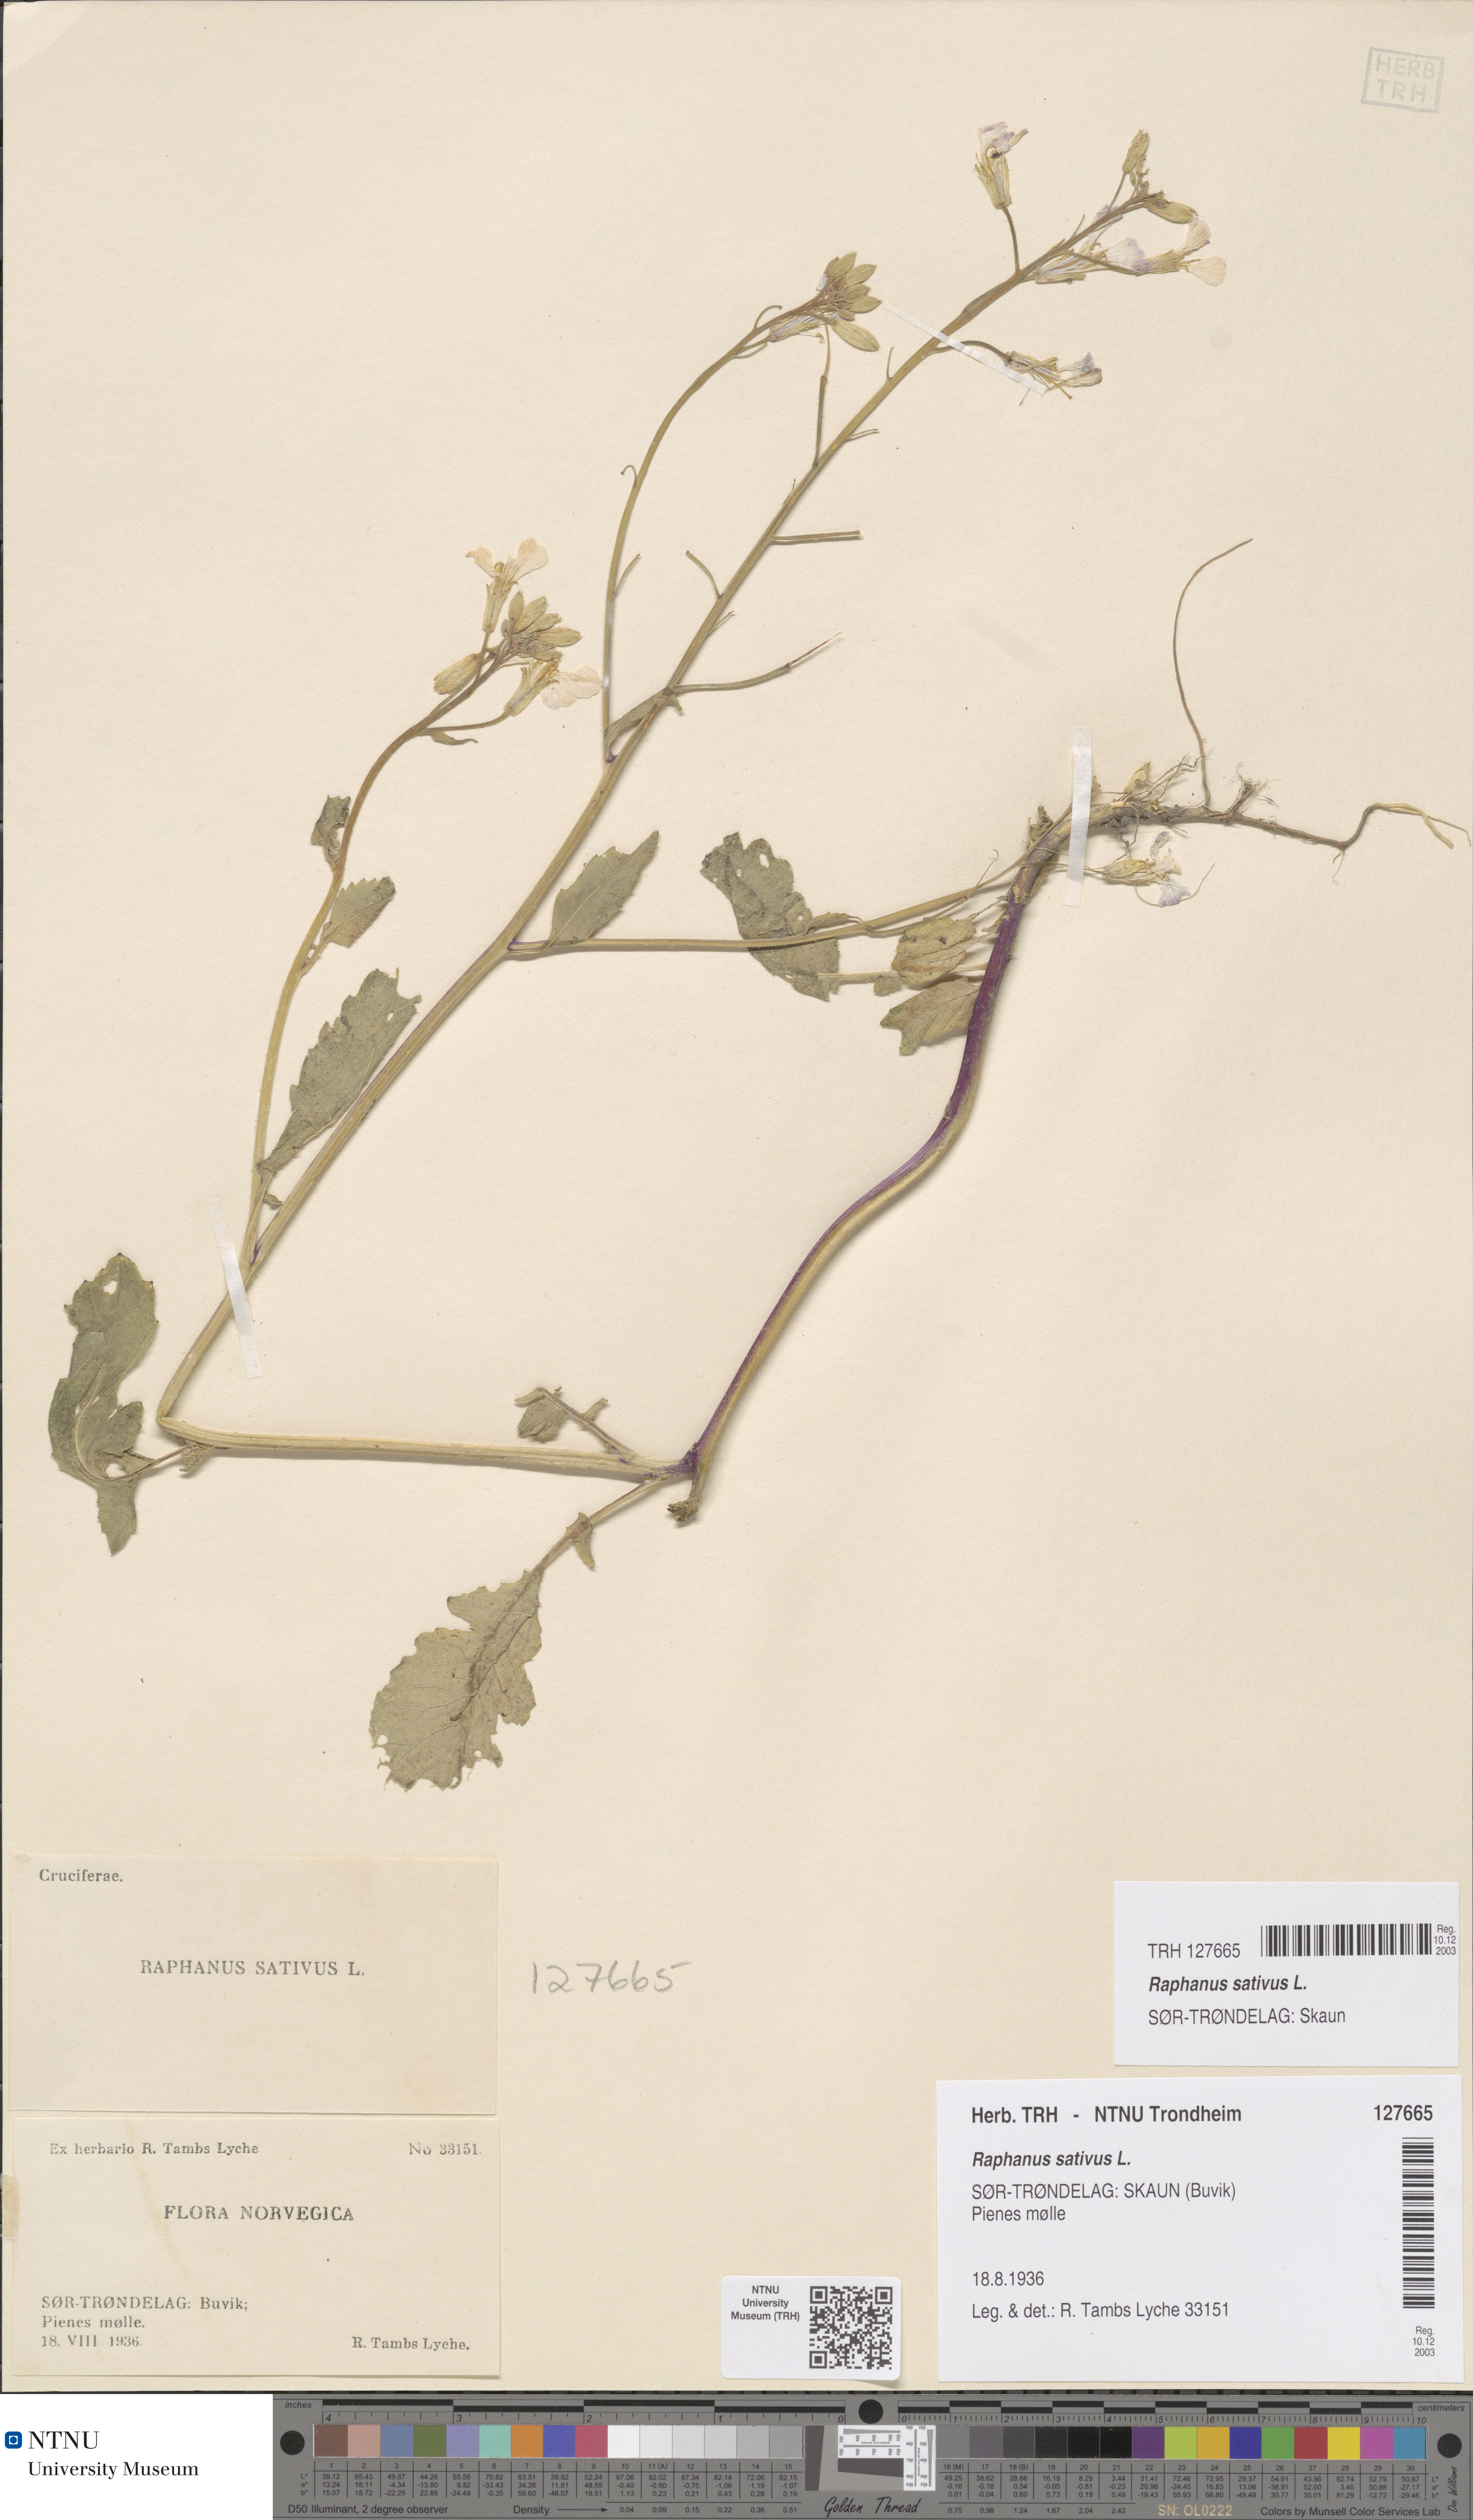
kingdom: Plantae
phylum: Tracheophyta
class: Magnoliopsida
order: Brassicales
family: Brassicaceae
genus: Raphanus
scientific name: Raphanus sativus
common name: Cultivated radish
